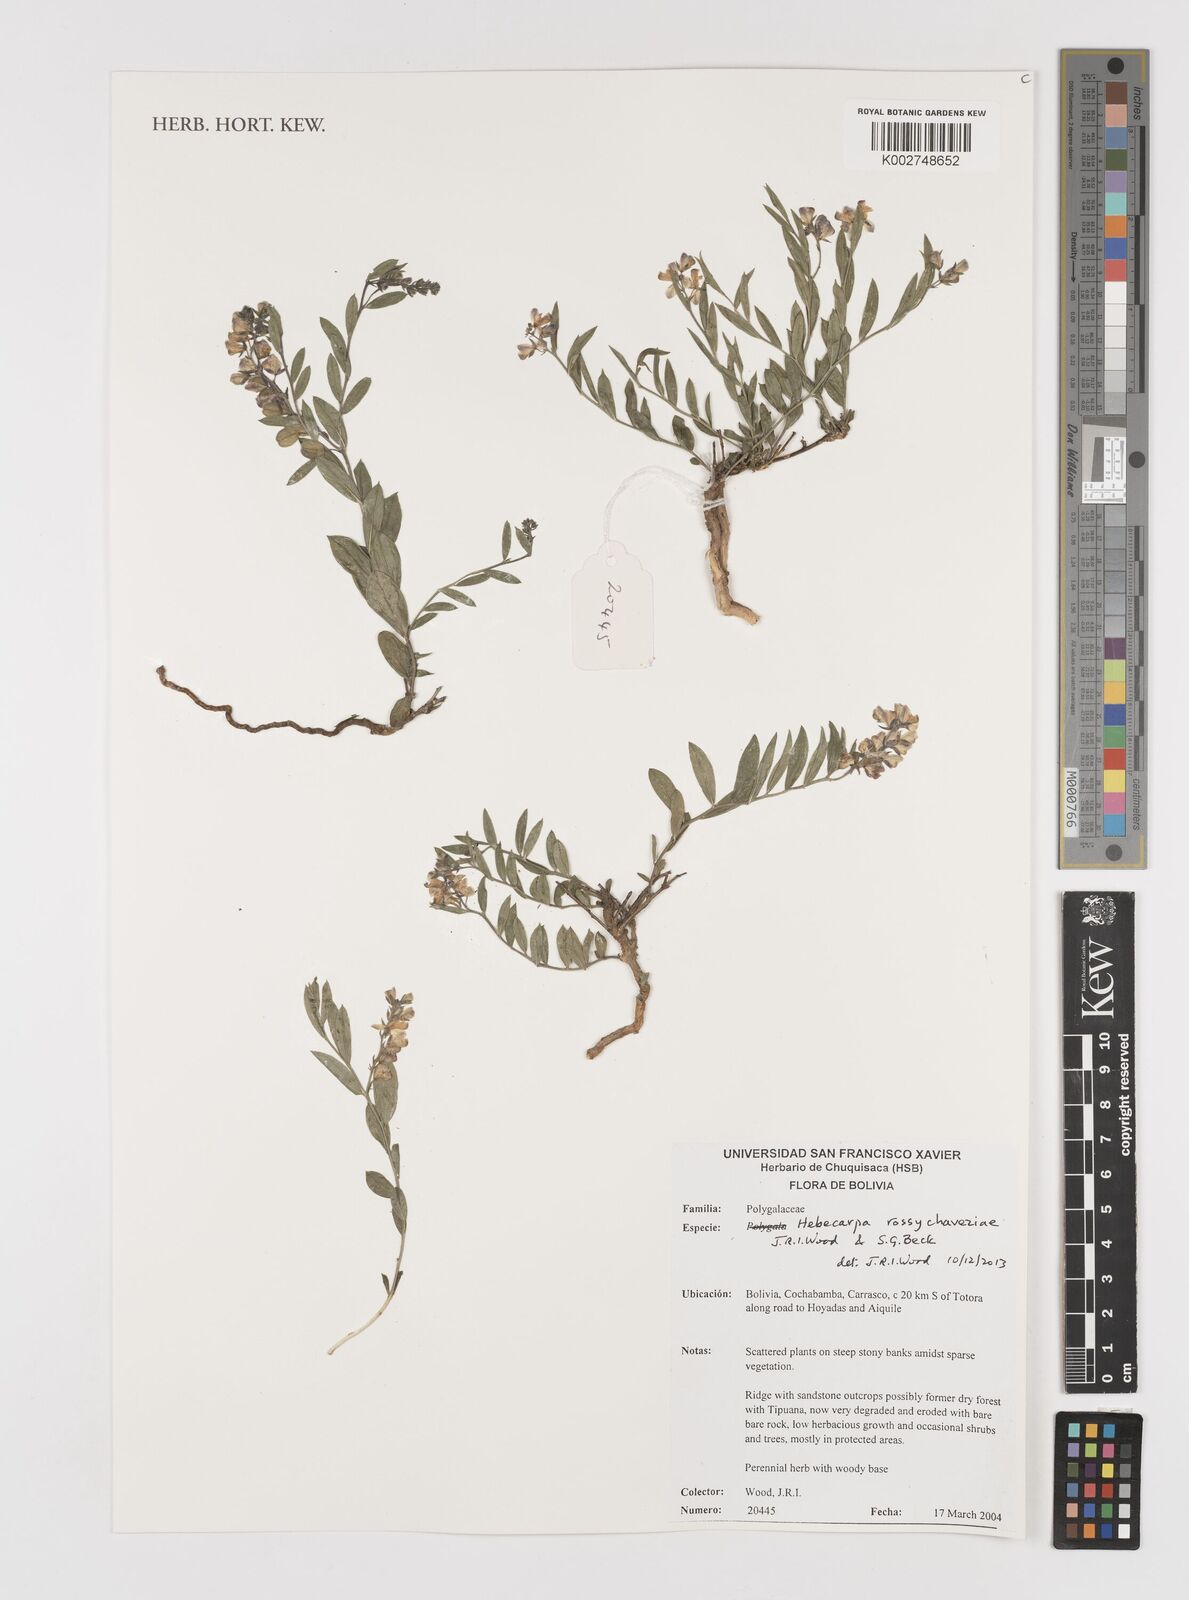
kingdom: Plantae
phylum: Tracheophyta
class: Magnoliopsida
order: Fabales
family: Polygalaceae
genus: Hebecarpa
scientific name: Hebecarpa rossychaveziae
